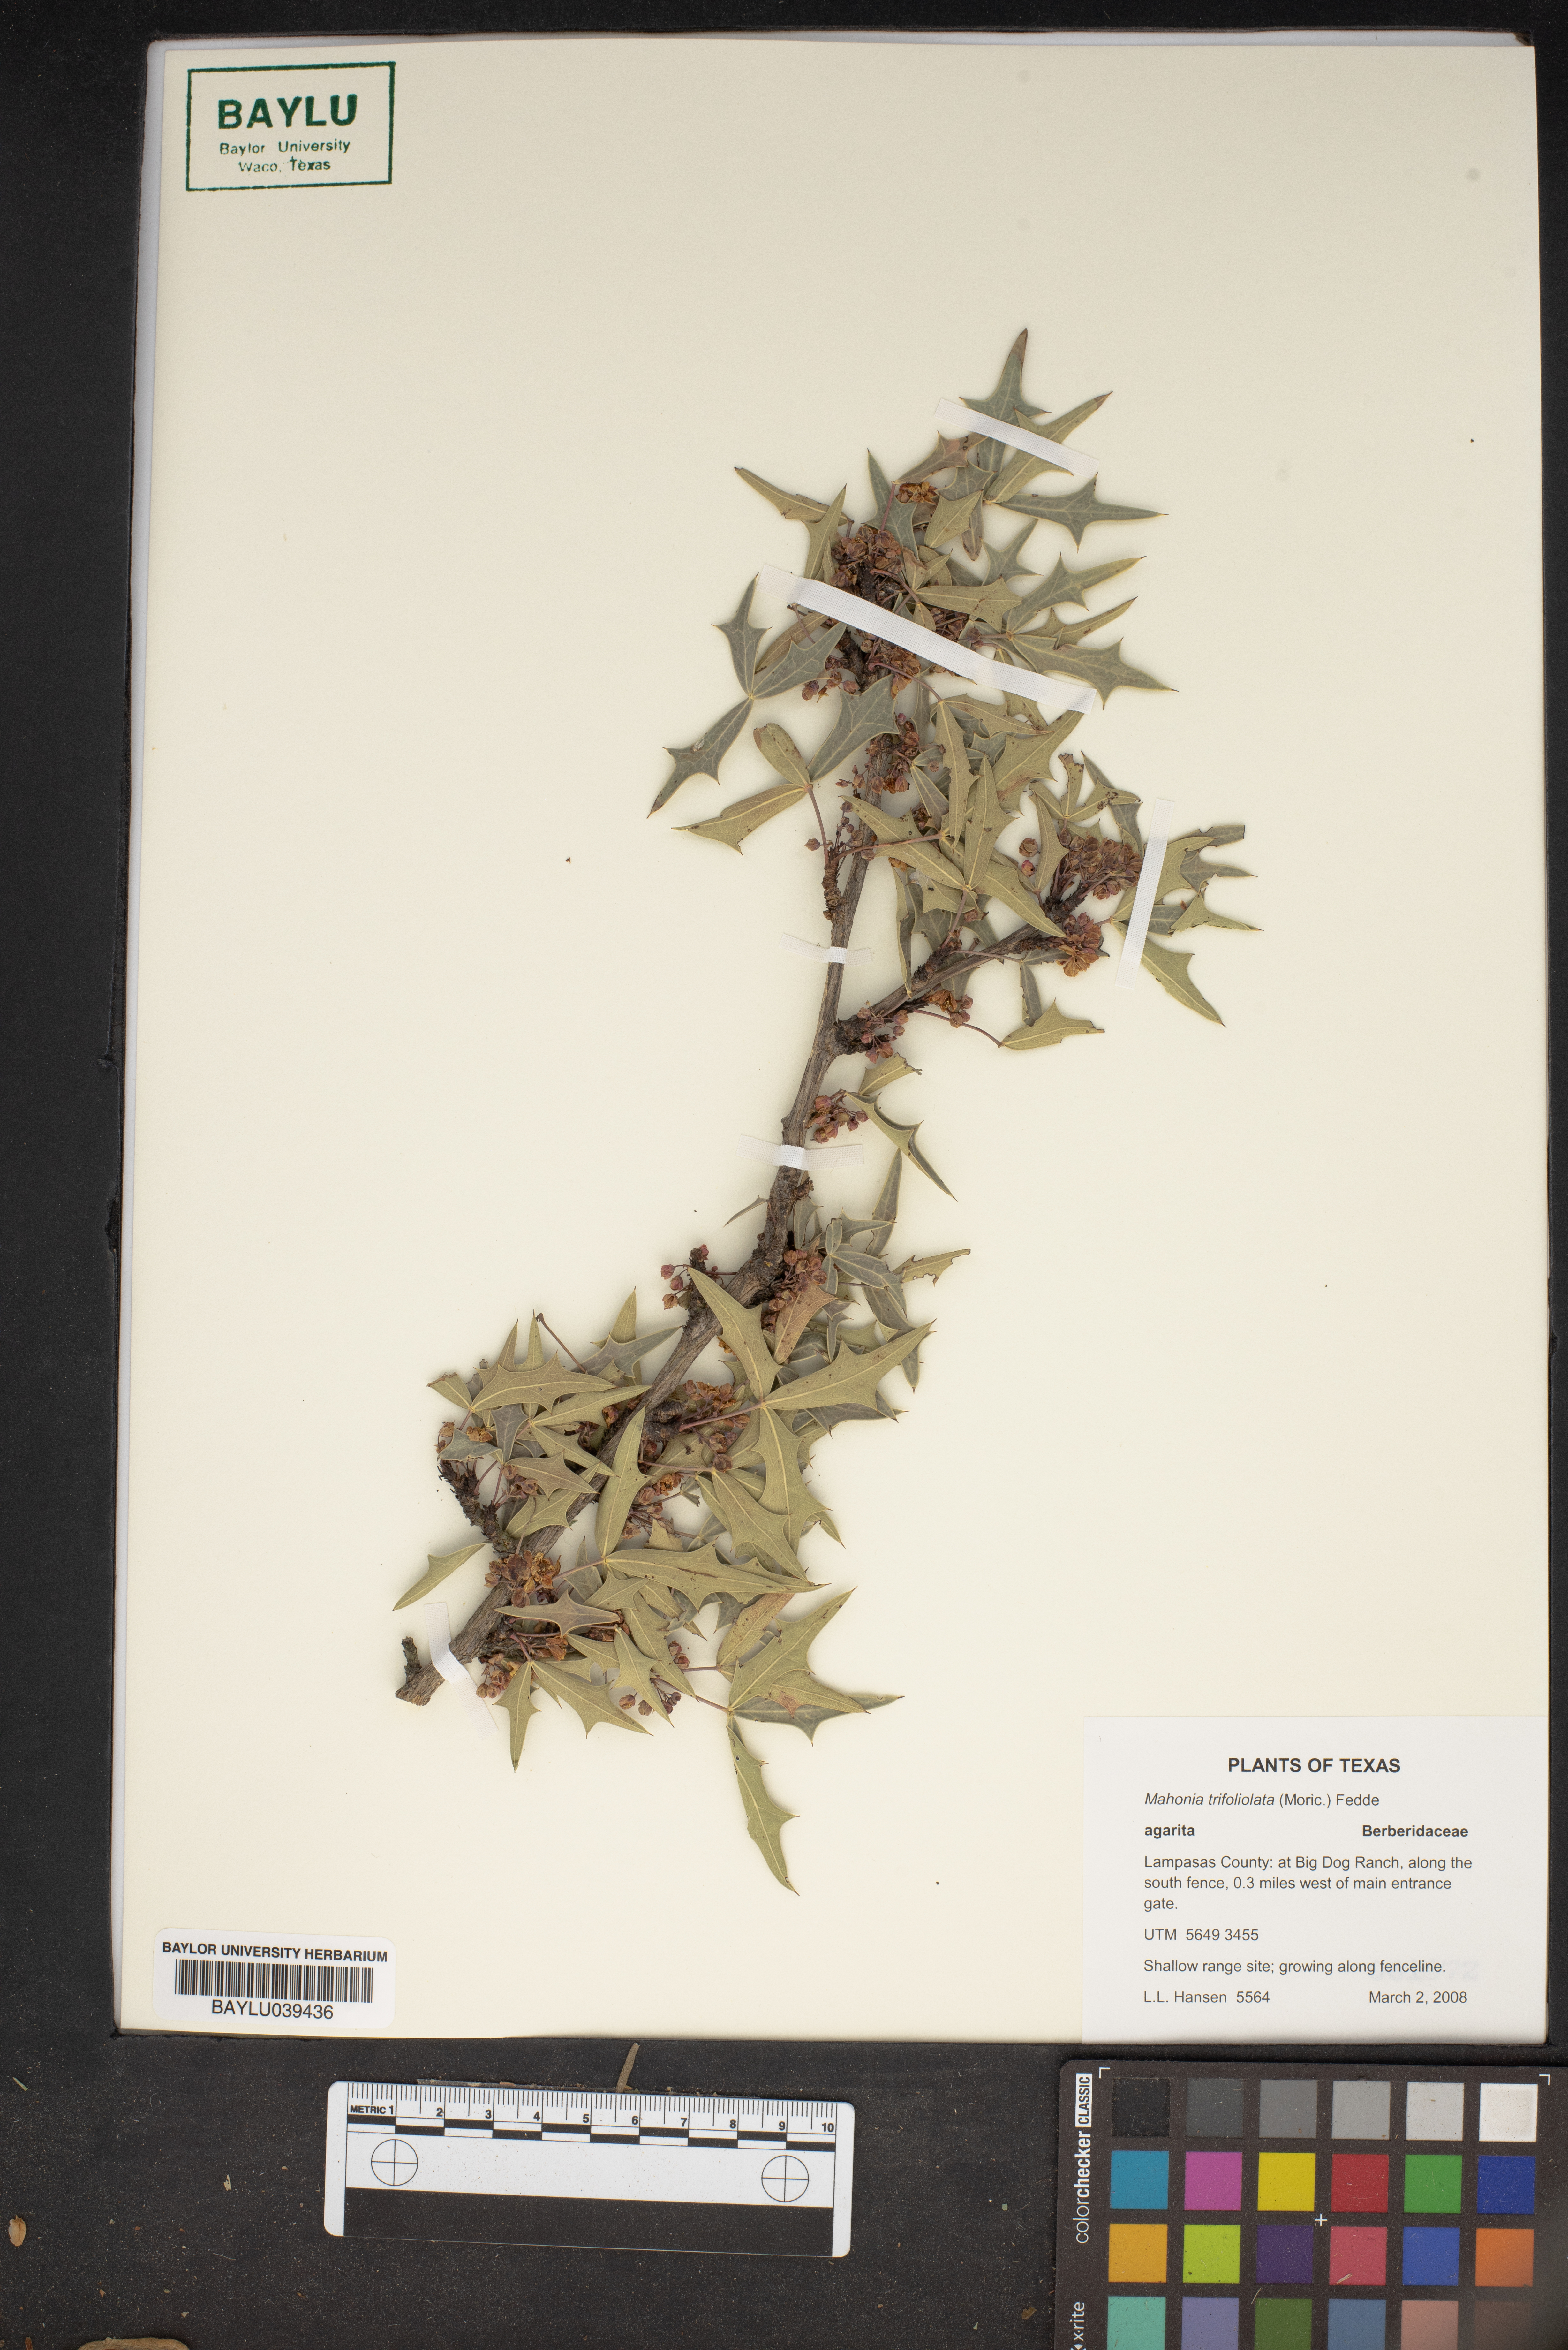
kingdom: Plantae
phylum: Tracheophyta
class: Magnoliopsida
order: Ranunculales
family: Berberidaceae
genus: Alloberberis
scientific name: Alloberberis trifoliolata
